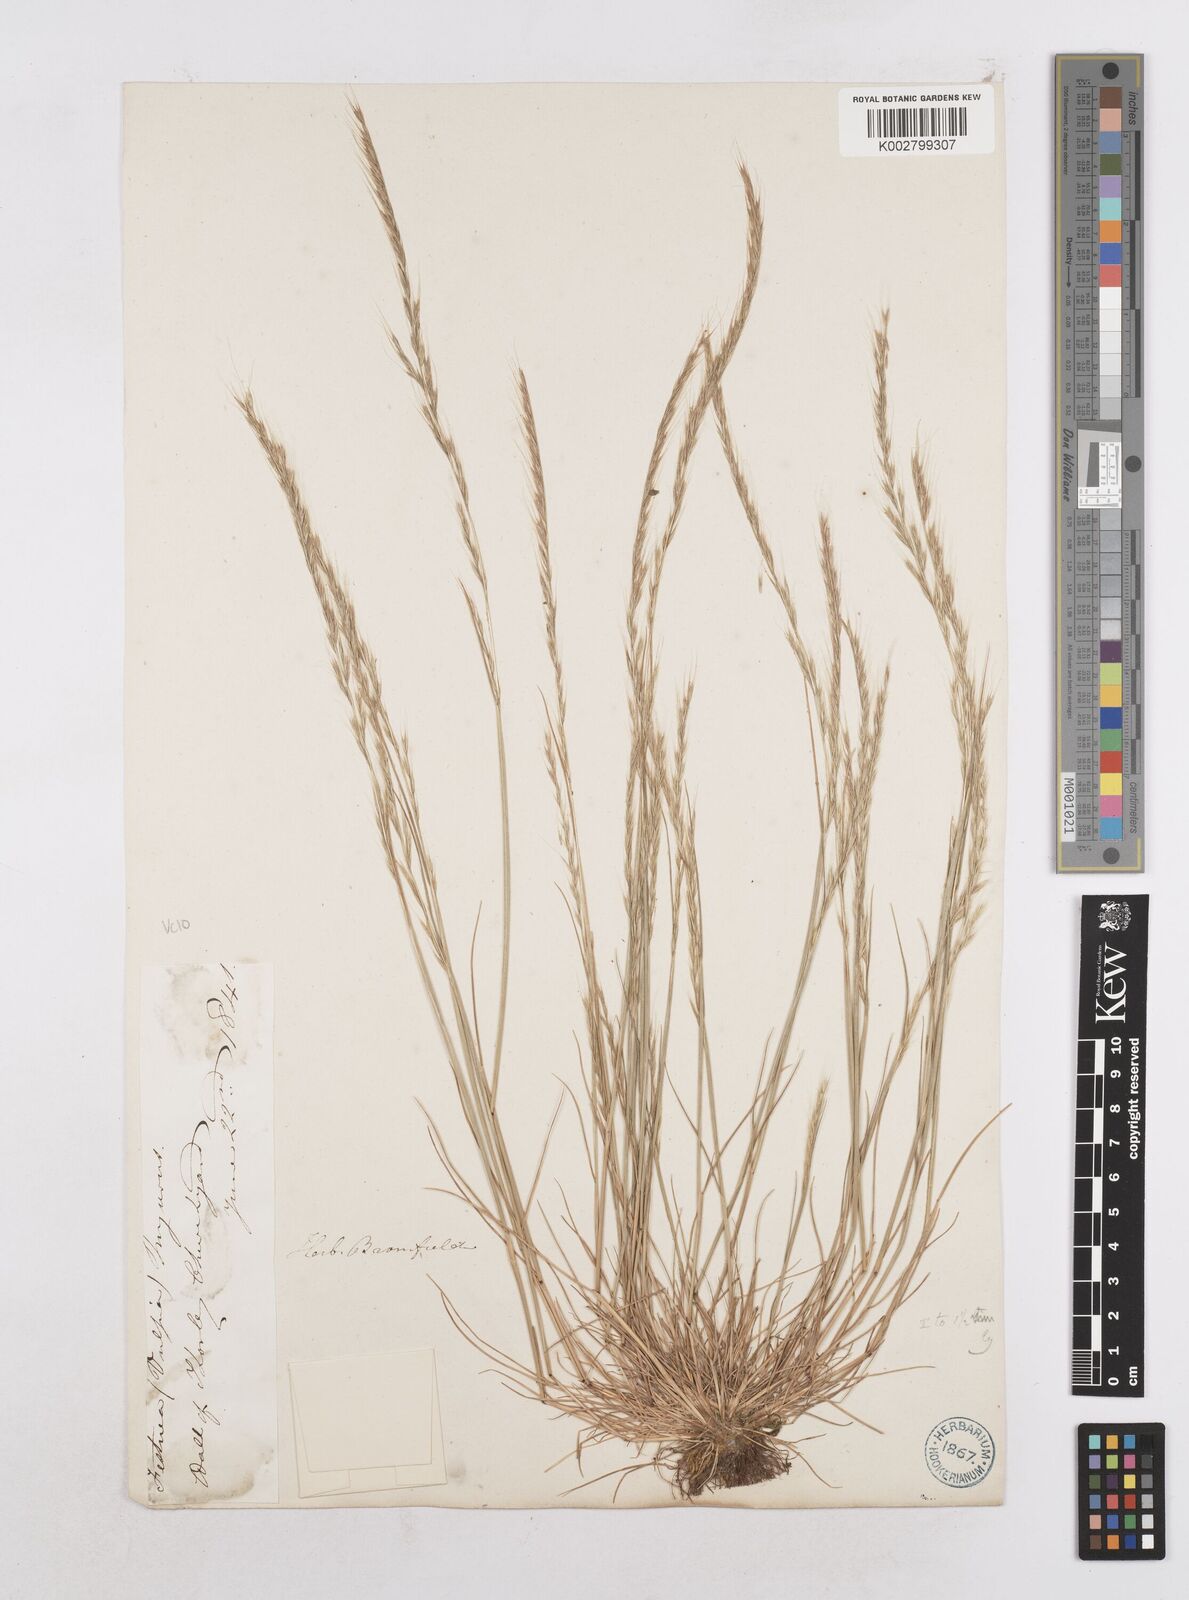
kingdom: Plantae
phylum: Tracheophyta
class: Liliopsida
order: Poales
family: Poaceae
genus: Festuca
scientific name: Festuca myuros
